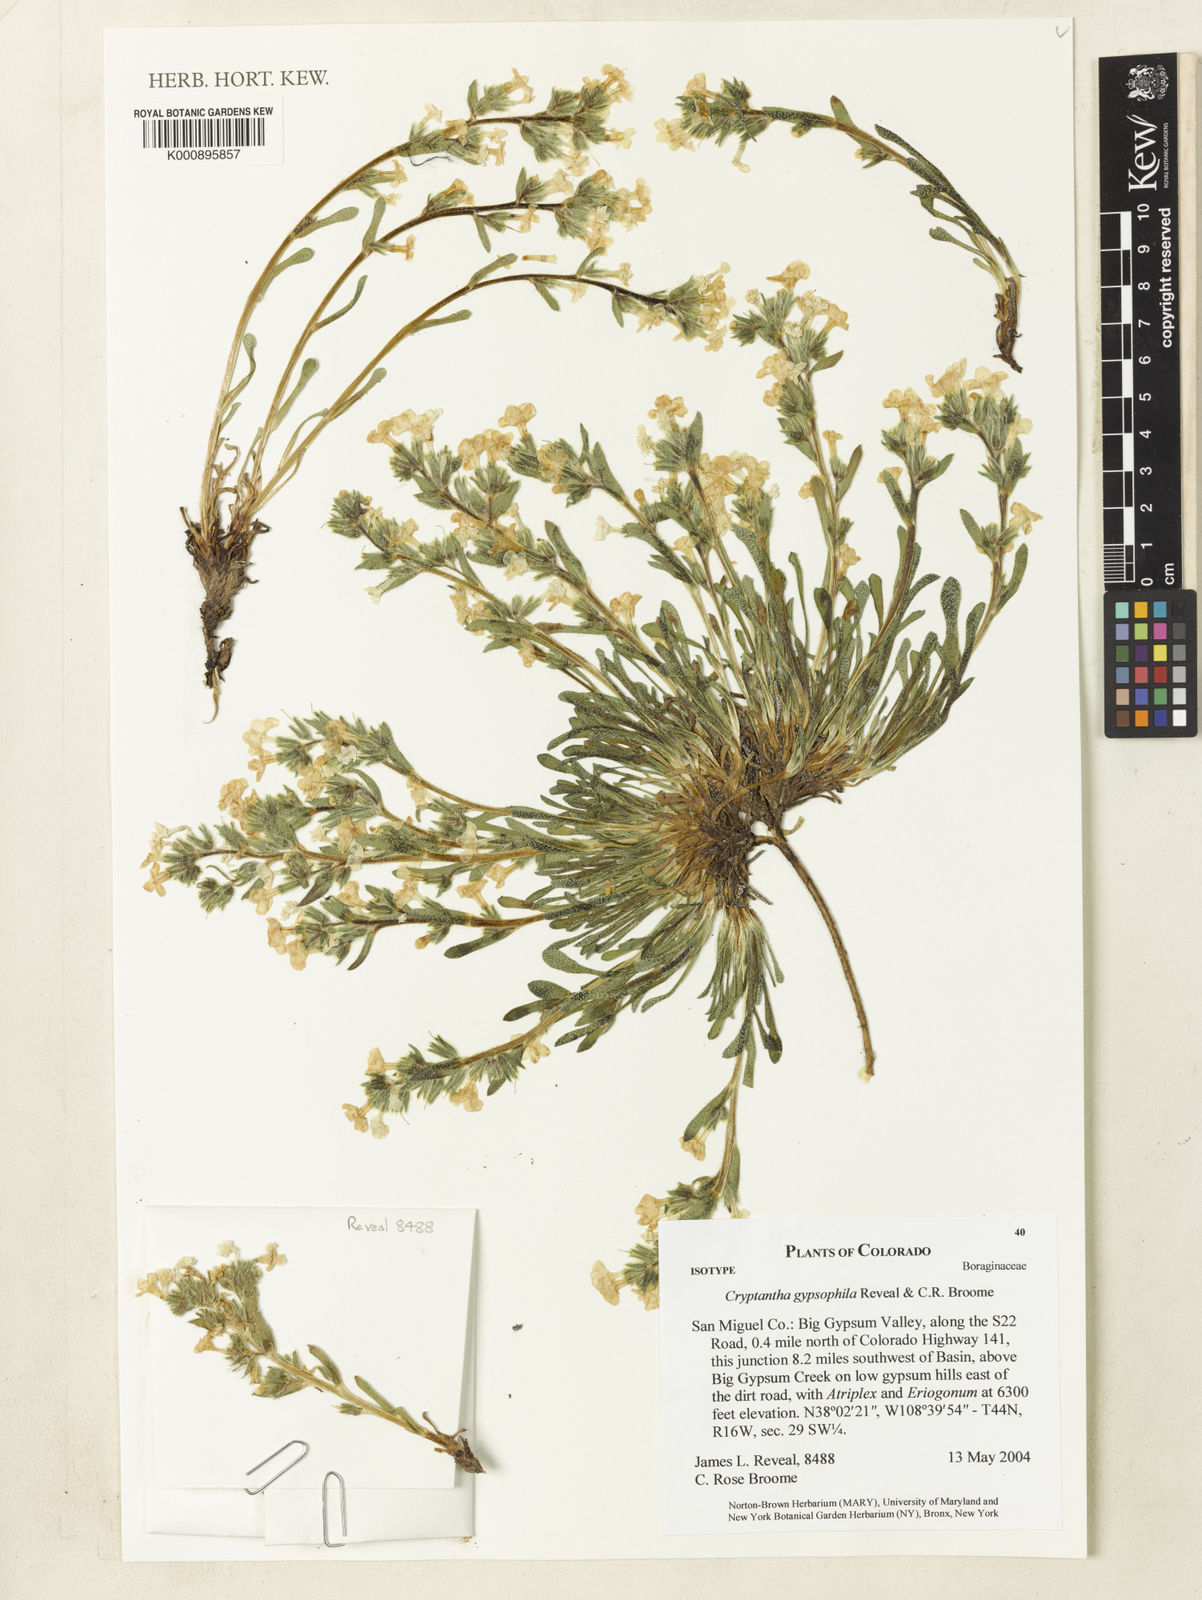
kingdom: Plantae
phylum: Tracheophyta
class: Magnoliopsida
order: Boraginales
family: Boraginaceae
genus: Oreocarya
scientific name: Oreocarya revealii
